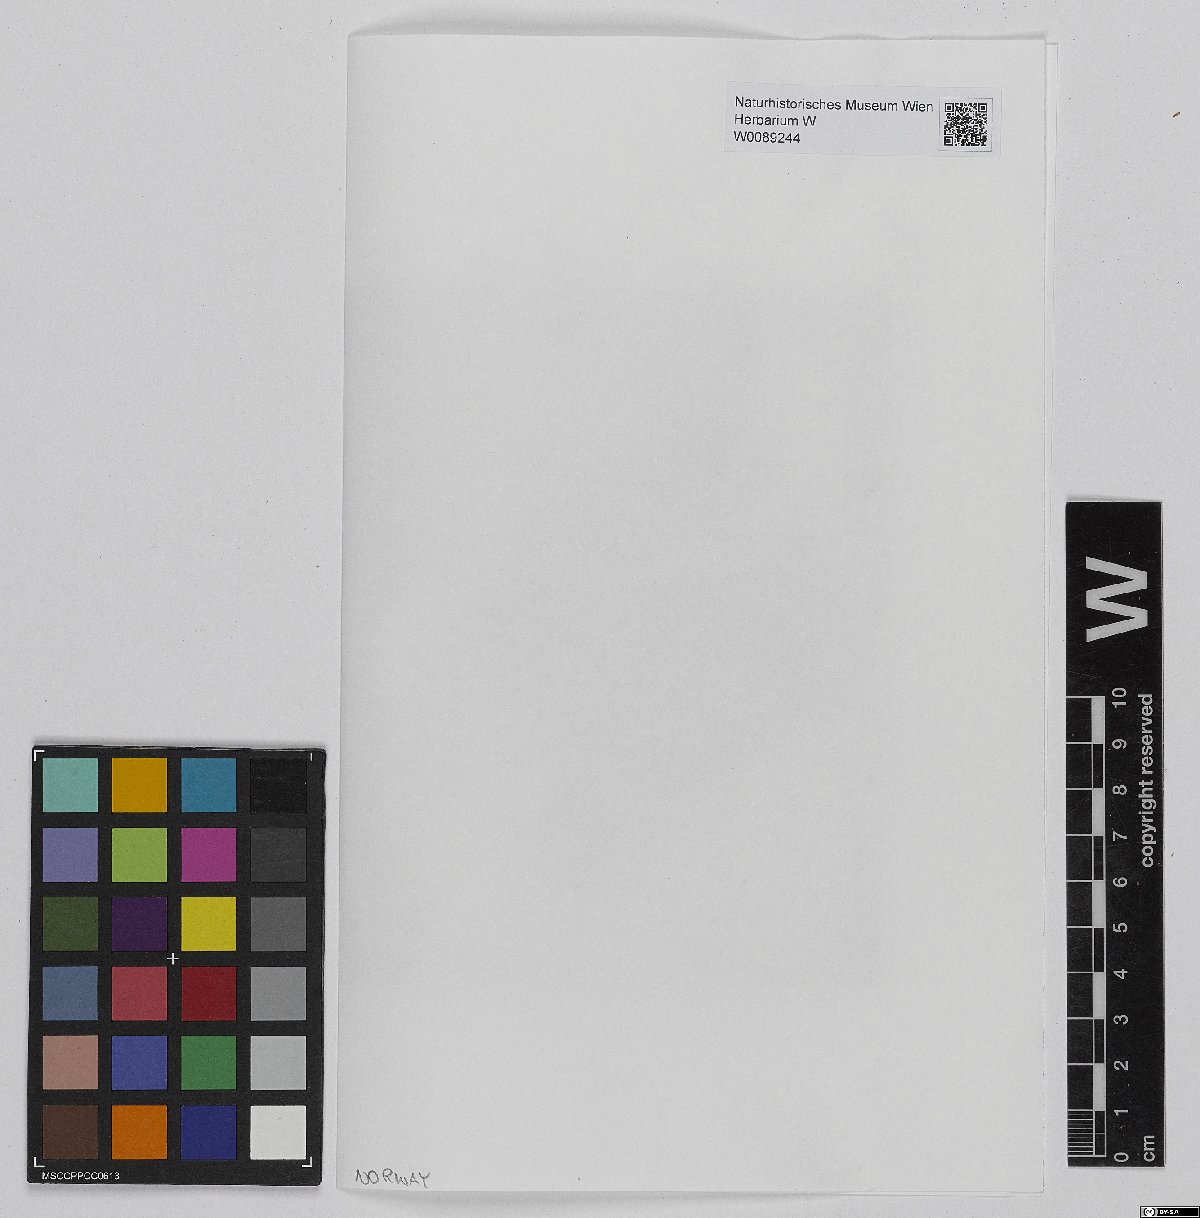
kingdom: Plantae
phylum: Bryophyta
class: Sphagnopsida
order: Sphagnales
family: Sphagnaceae
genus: Sphagnum
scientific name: Sphagnum lindbergii
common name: Lindberg's peat moss
